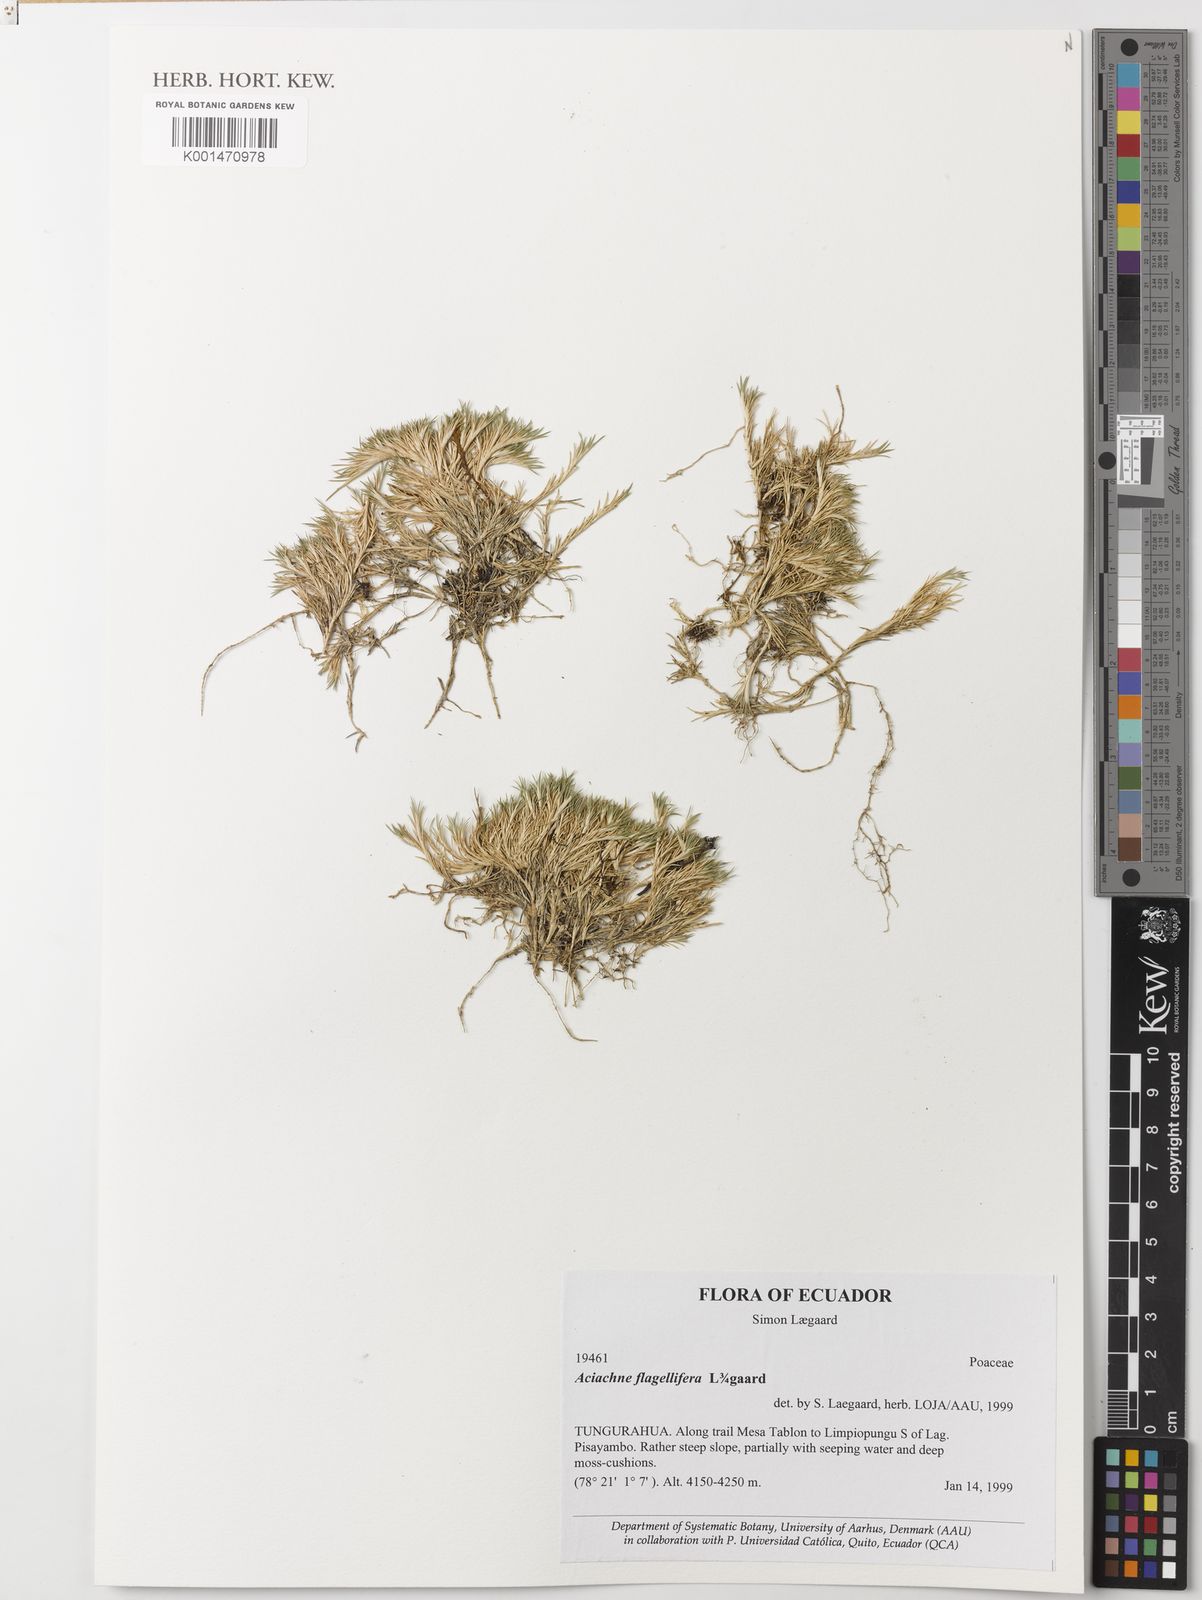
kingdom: Plantae
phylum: Tracheophyta
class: Liliopsida
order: Poales
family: Poaceae
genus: Aciachne
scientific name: Aciachne flagellifera
